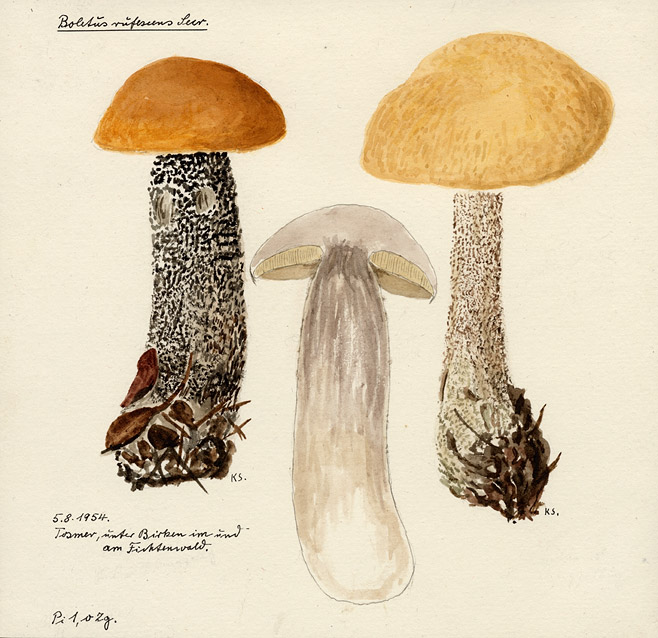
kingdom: Plantae
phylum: Tracheophyta
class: Magnoliopsida
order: Fagales
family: Betulaceae
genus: Betula
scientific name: Betula
